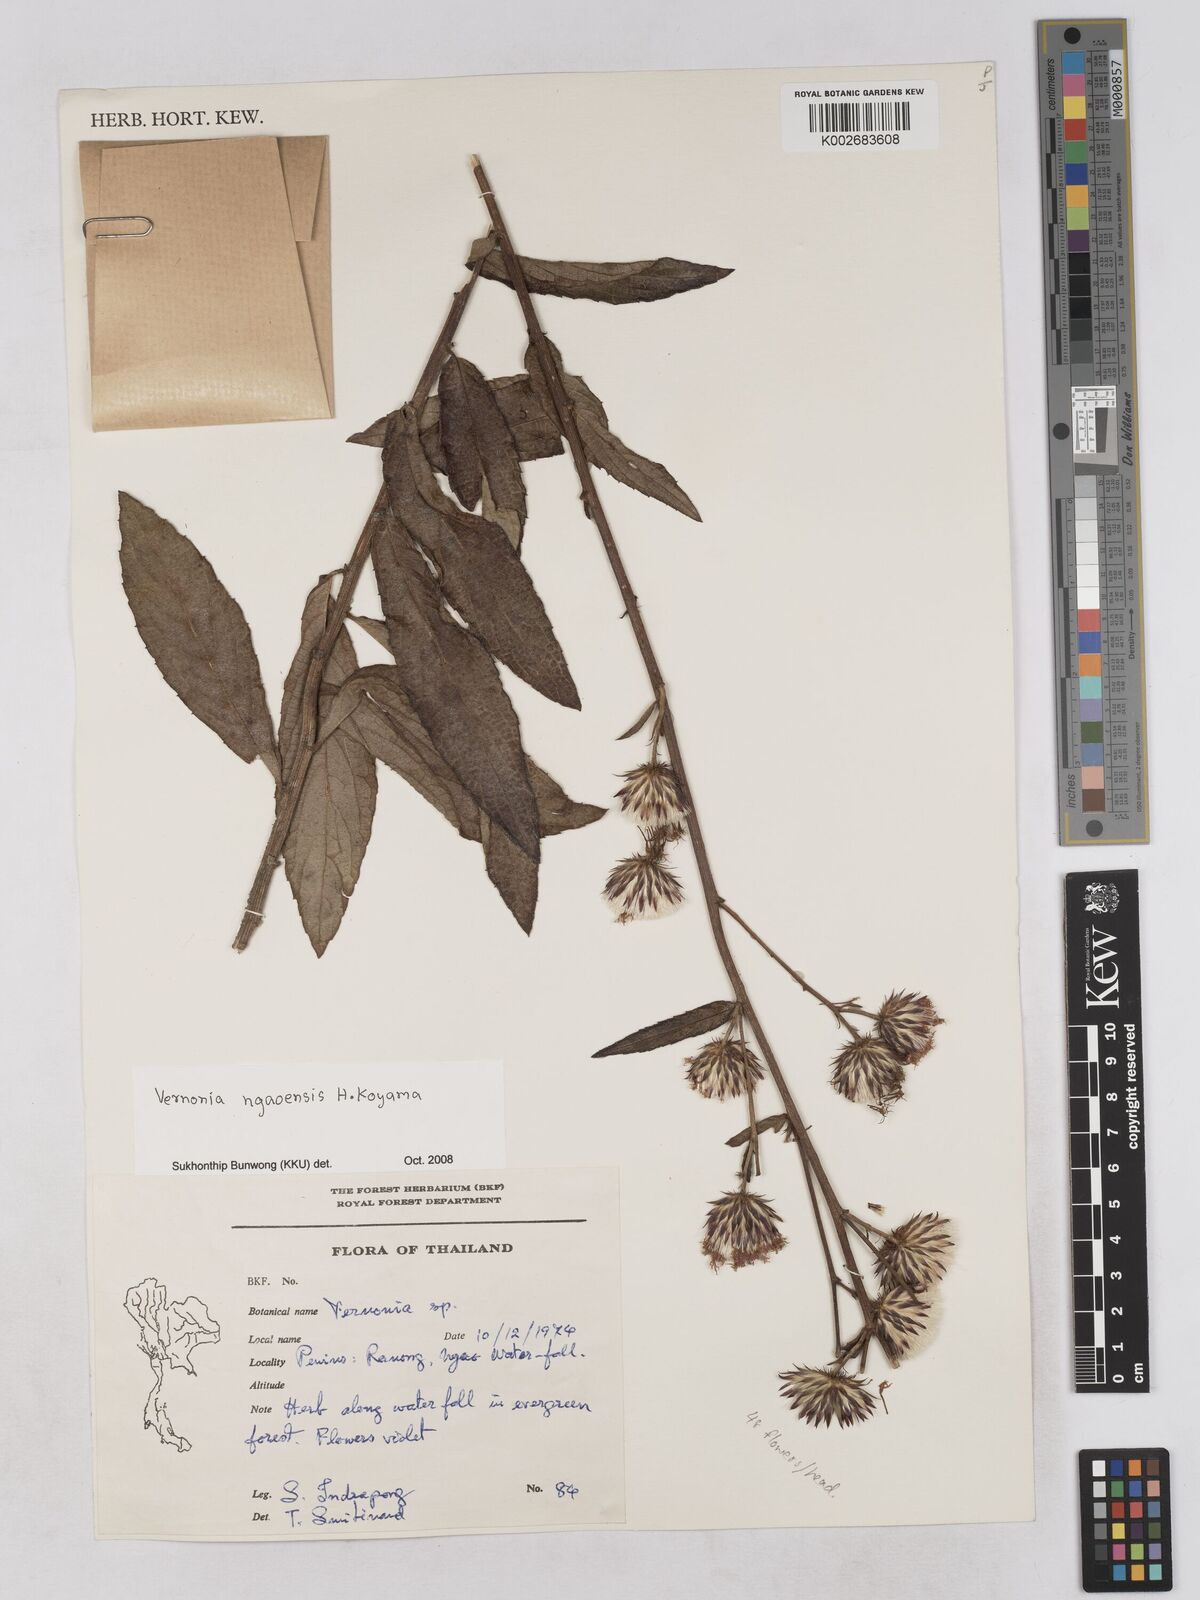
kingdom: Plantae
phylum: Tracheophyta
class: Magnoliopsida
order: Asterales
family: Asteraceae
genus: Acilepis
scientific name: Acilepis ngaoensis
